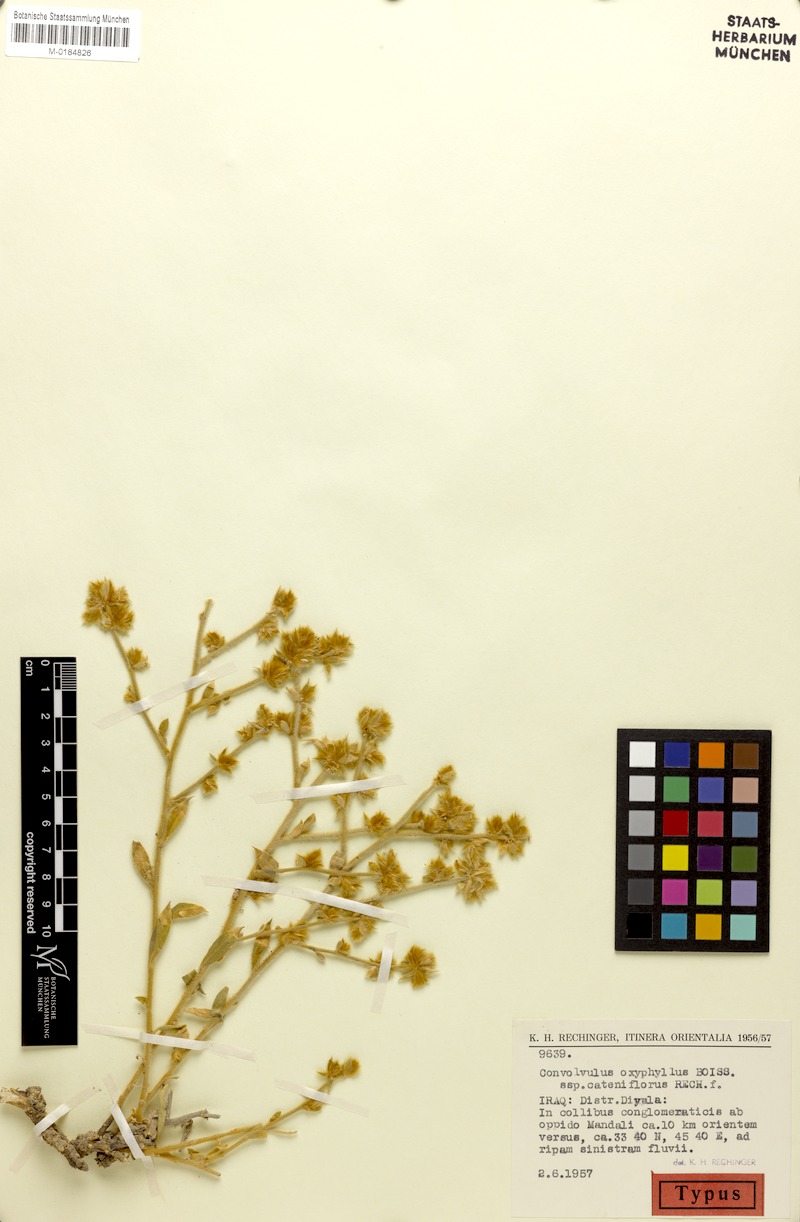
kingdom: Plantae
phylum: Tracheophyta
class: Magnoliopsida
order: Solanales
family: Convolvulaceae
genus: Convolvulus
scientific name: Convolvulus oxyphyllus
